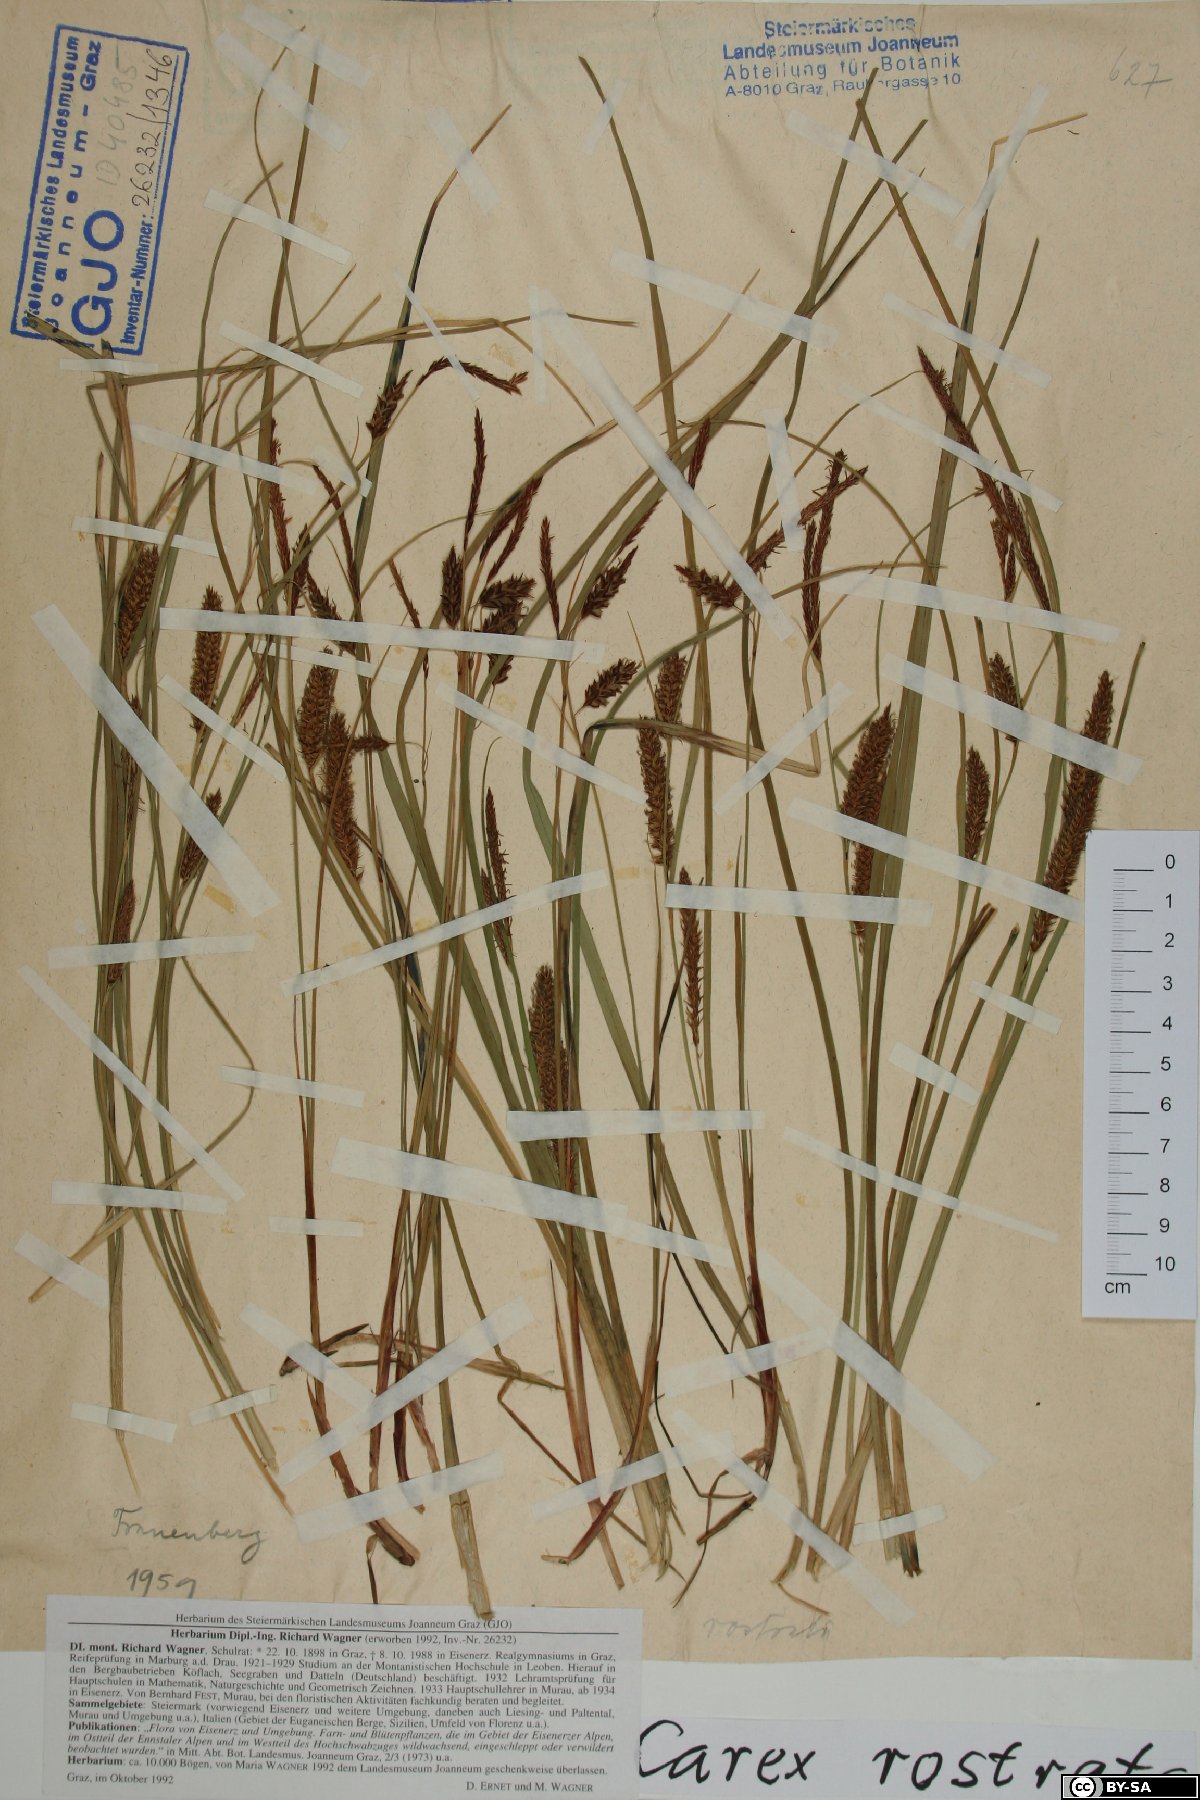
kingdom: Plantae
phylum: Tracheophyta
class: Liliopsida
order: Poales
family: Cyperaceae
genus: Carex
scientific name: Carex rostrata
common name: Bottle sedge
